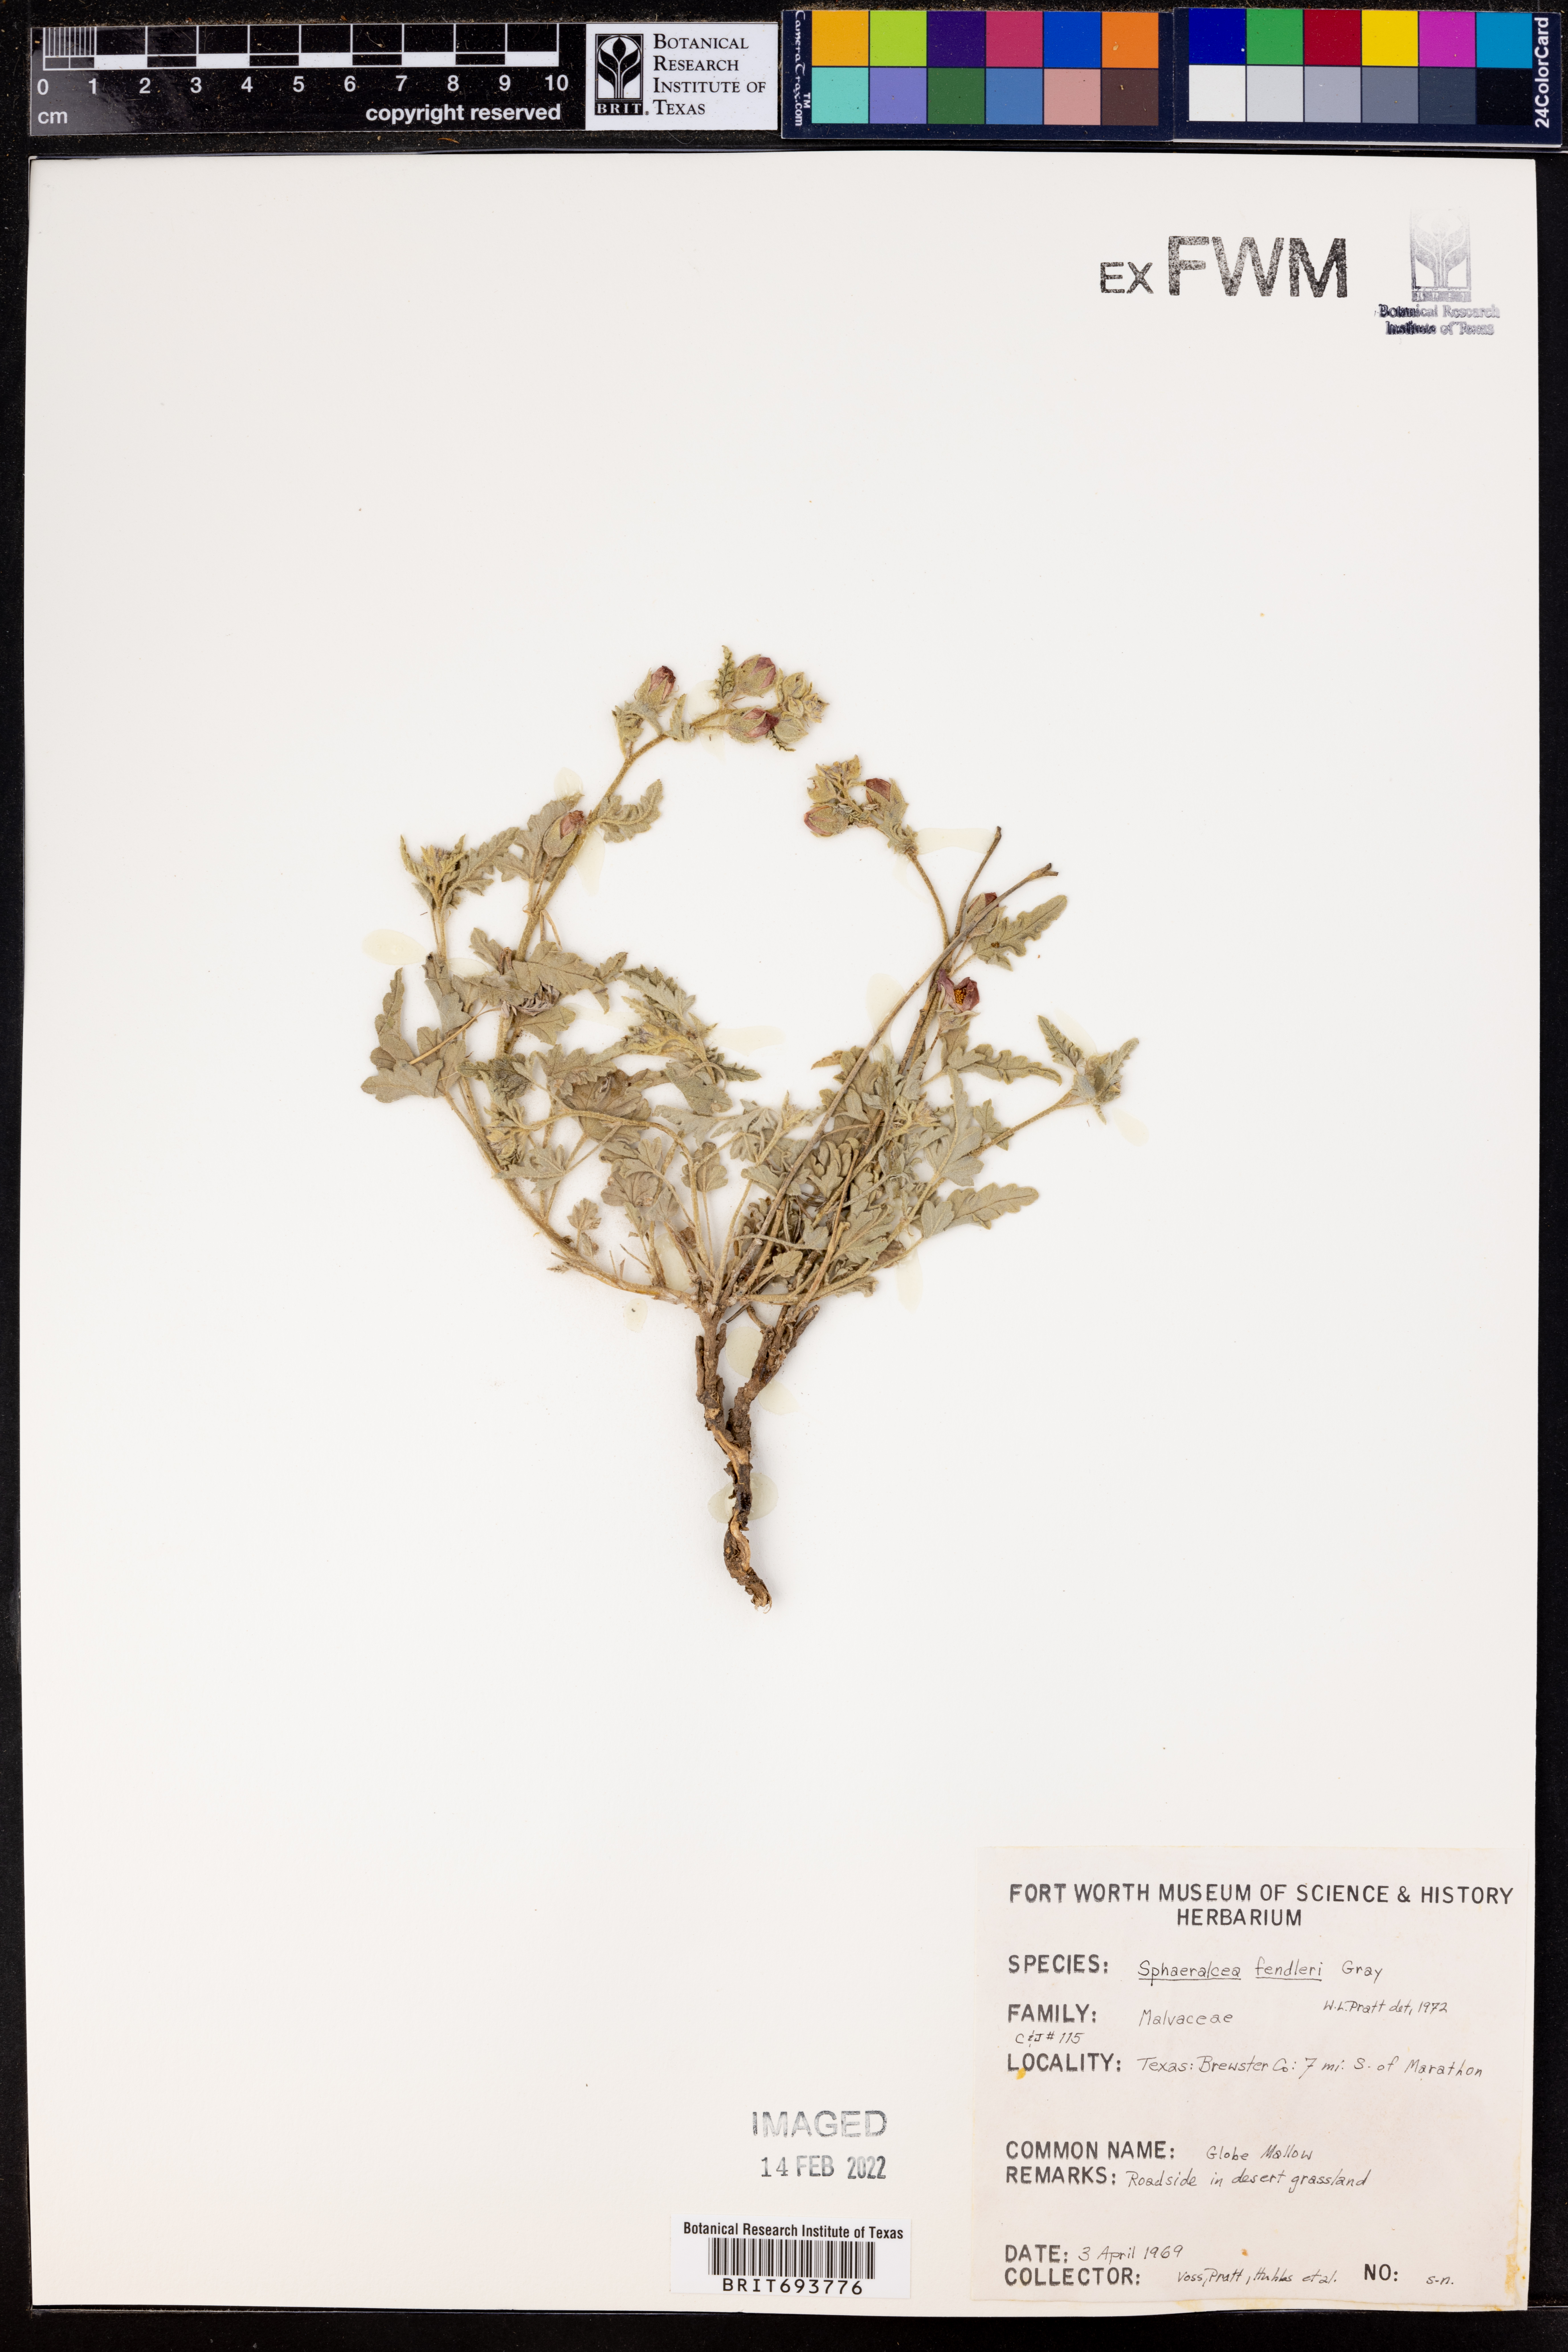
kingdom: Plantae
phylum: Tracheophyta
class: Magnoliopsida
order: Malvales
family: Malvaceae
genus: Sphaeralcea
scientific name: Sphaeralcea fendleri
